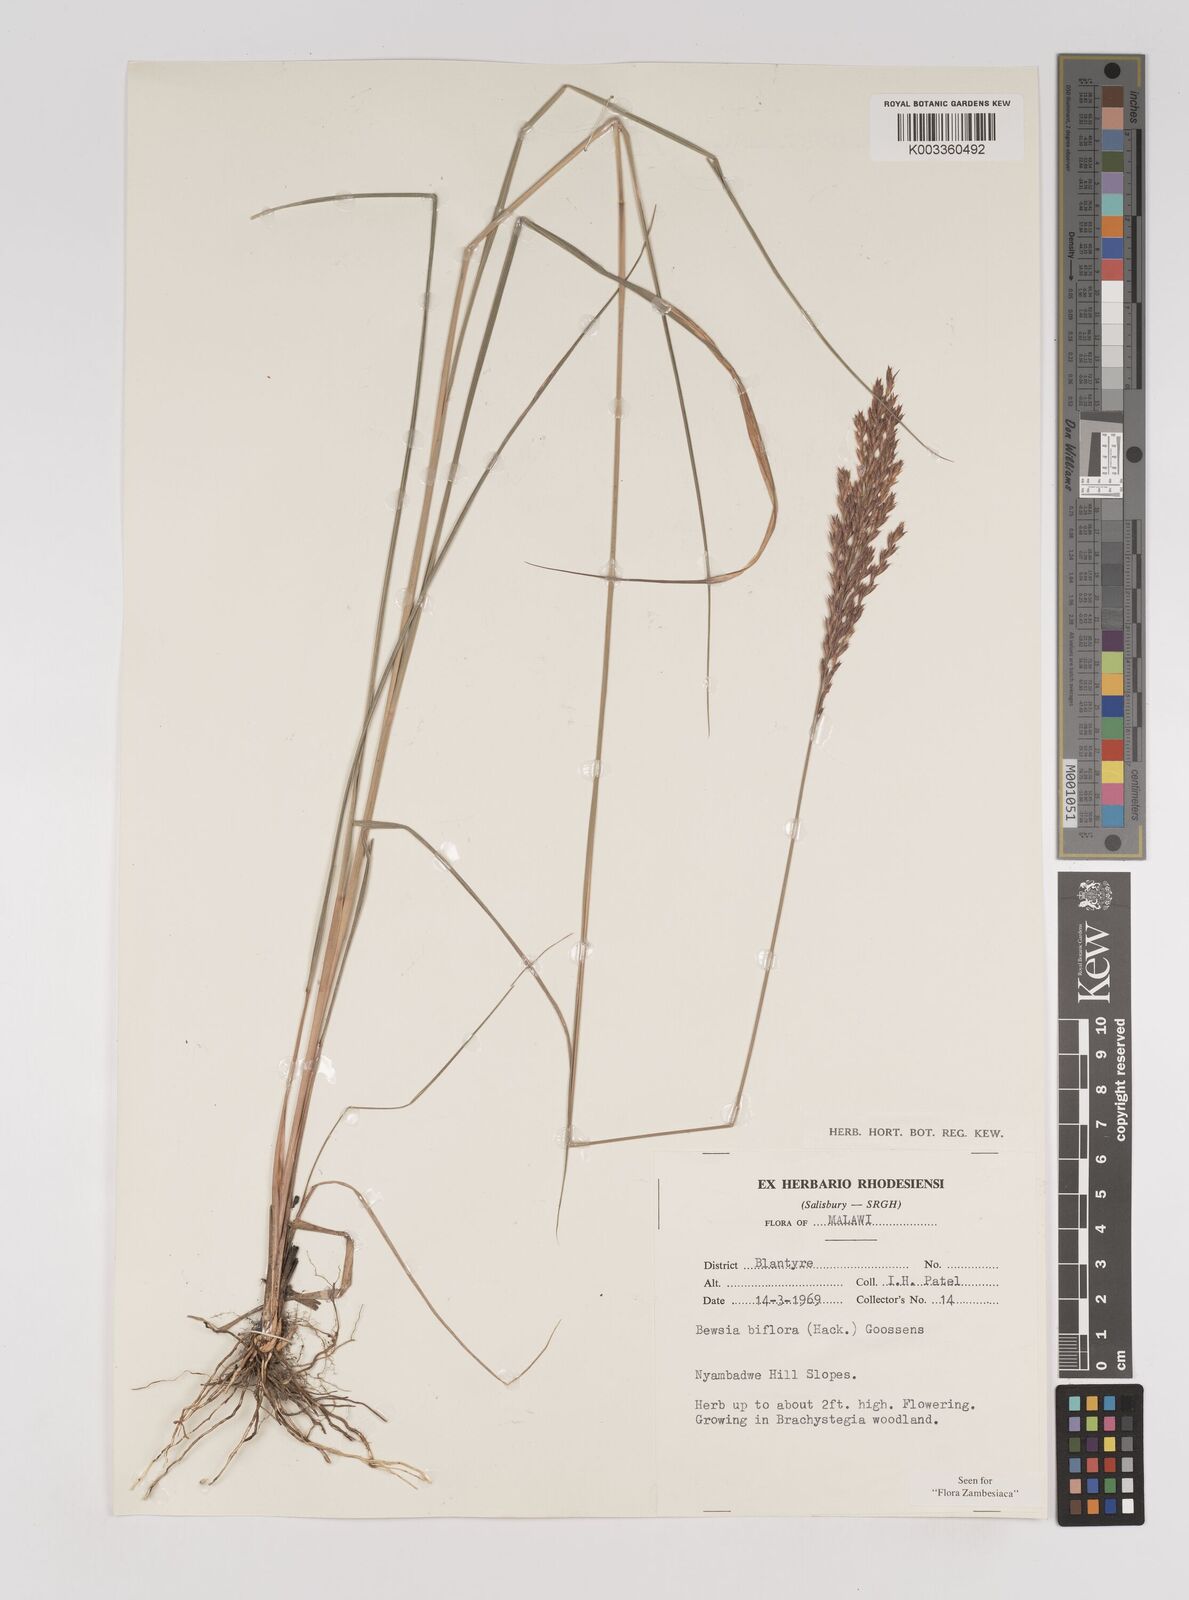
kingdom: Plantae
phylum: Tracheophyta
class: Liliopsida
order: Poales
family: Poaceae
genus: Bewsia
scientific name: Bewsia biflora
